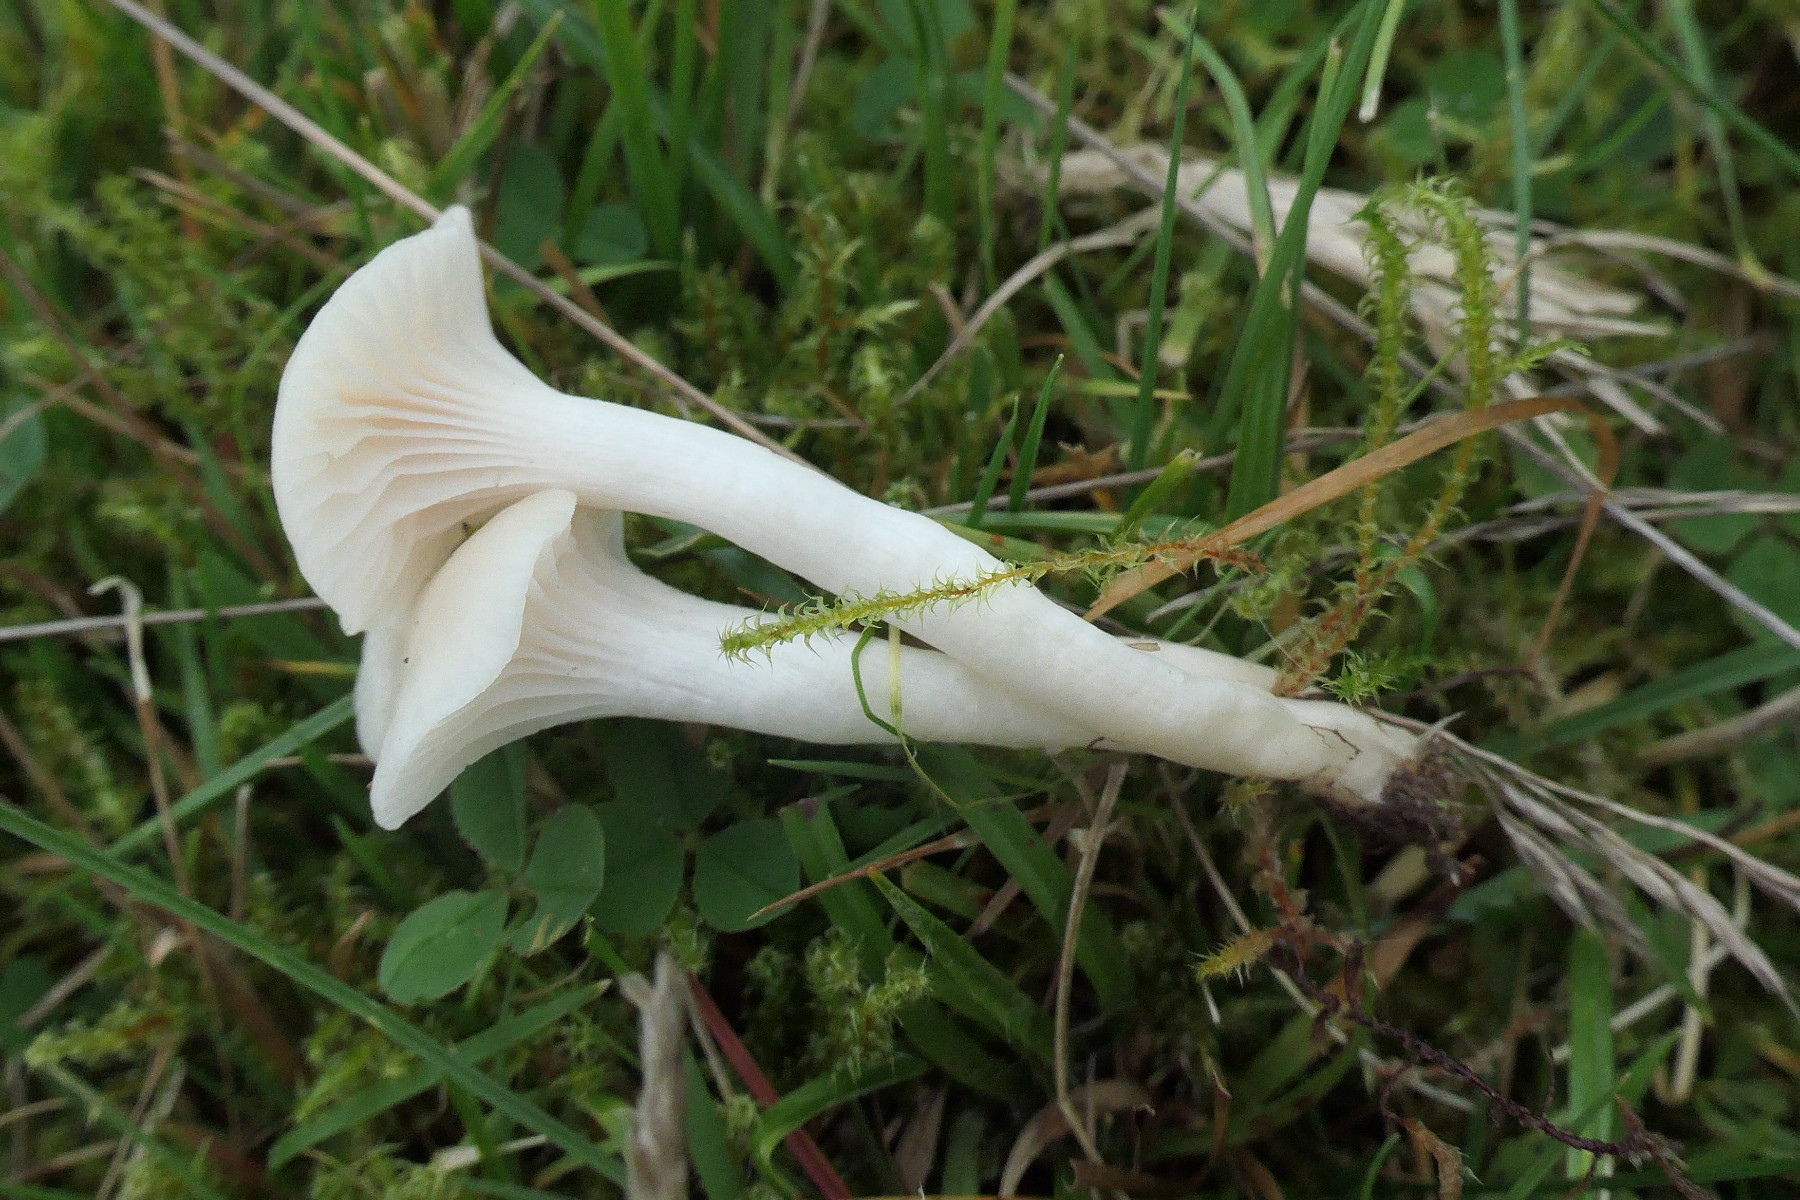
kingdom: Fungi
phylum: Basidiomycota
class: Agaricomycetes
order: Agaricales
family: Hygrophoraceae
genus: Cuphophyllus
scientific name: Cuphophyllus virgineus
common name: snehvid vokshat
